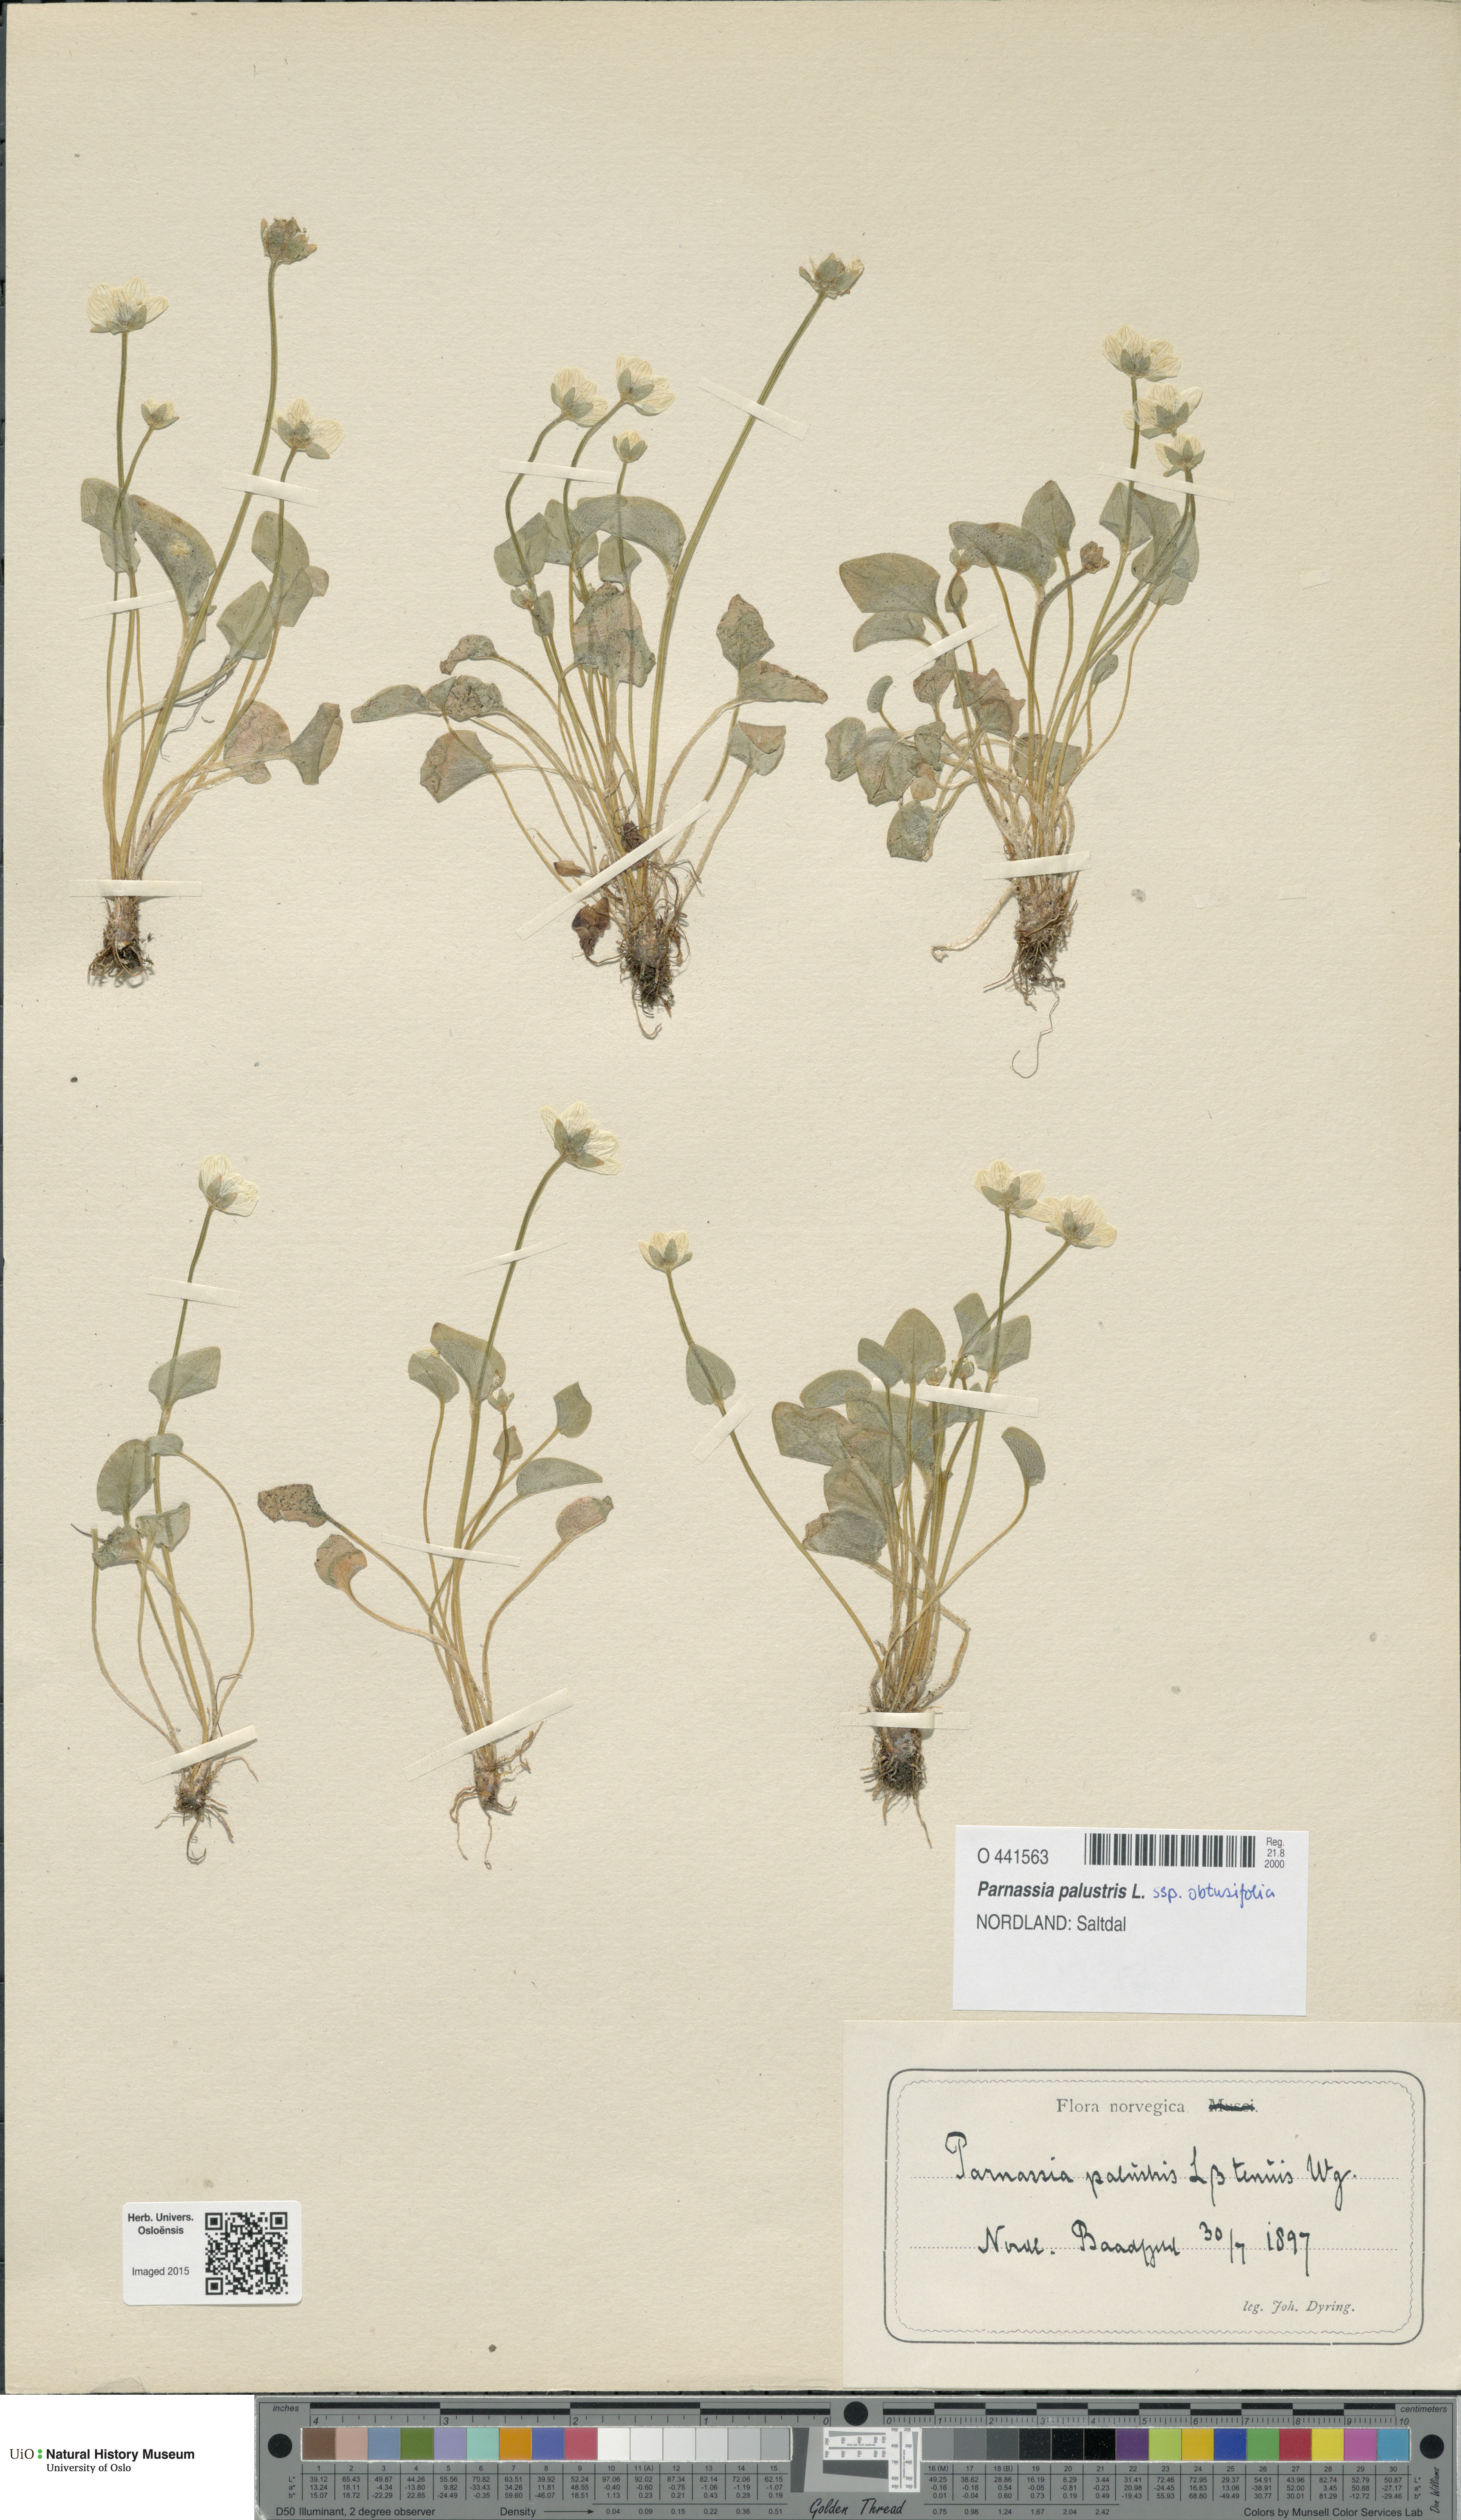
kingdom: Plantae
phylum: Tracheophyta
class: Magnoliopsida
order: Celastrales
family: Parnassiaceae
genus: Parnassia
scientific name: Parnassia palustris
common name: Grass-of-parnassus
